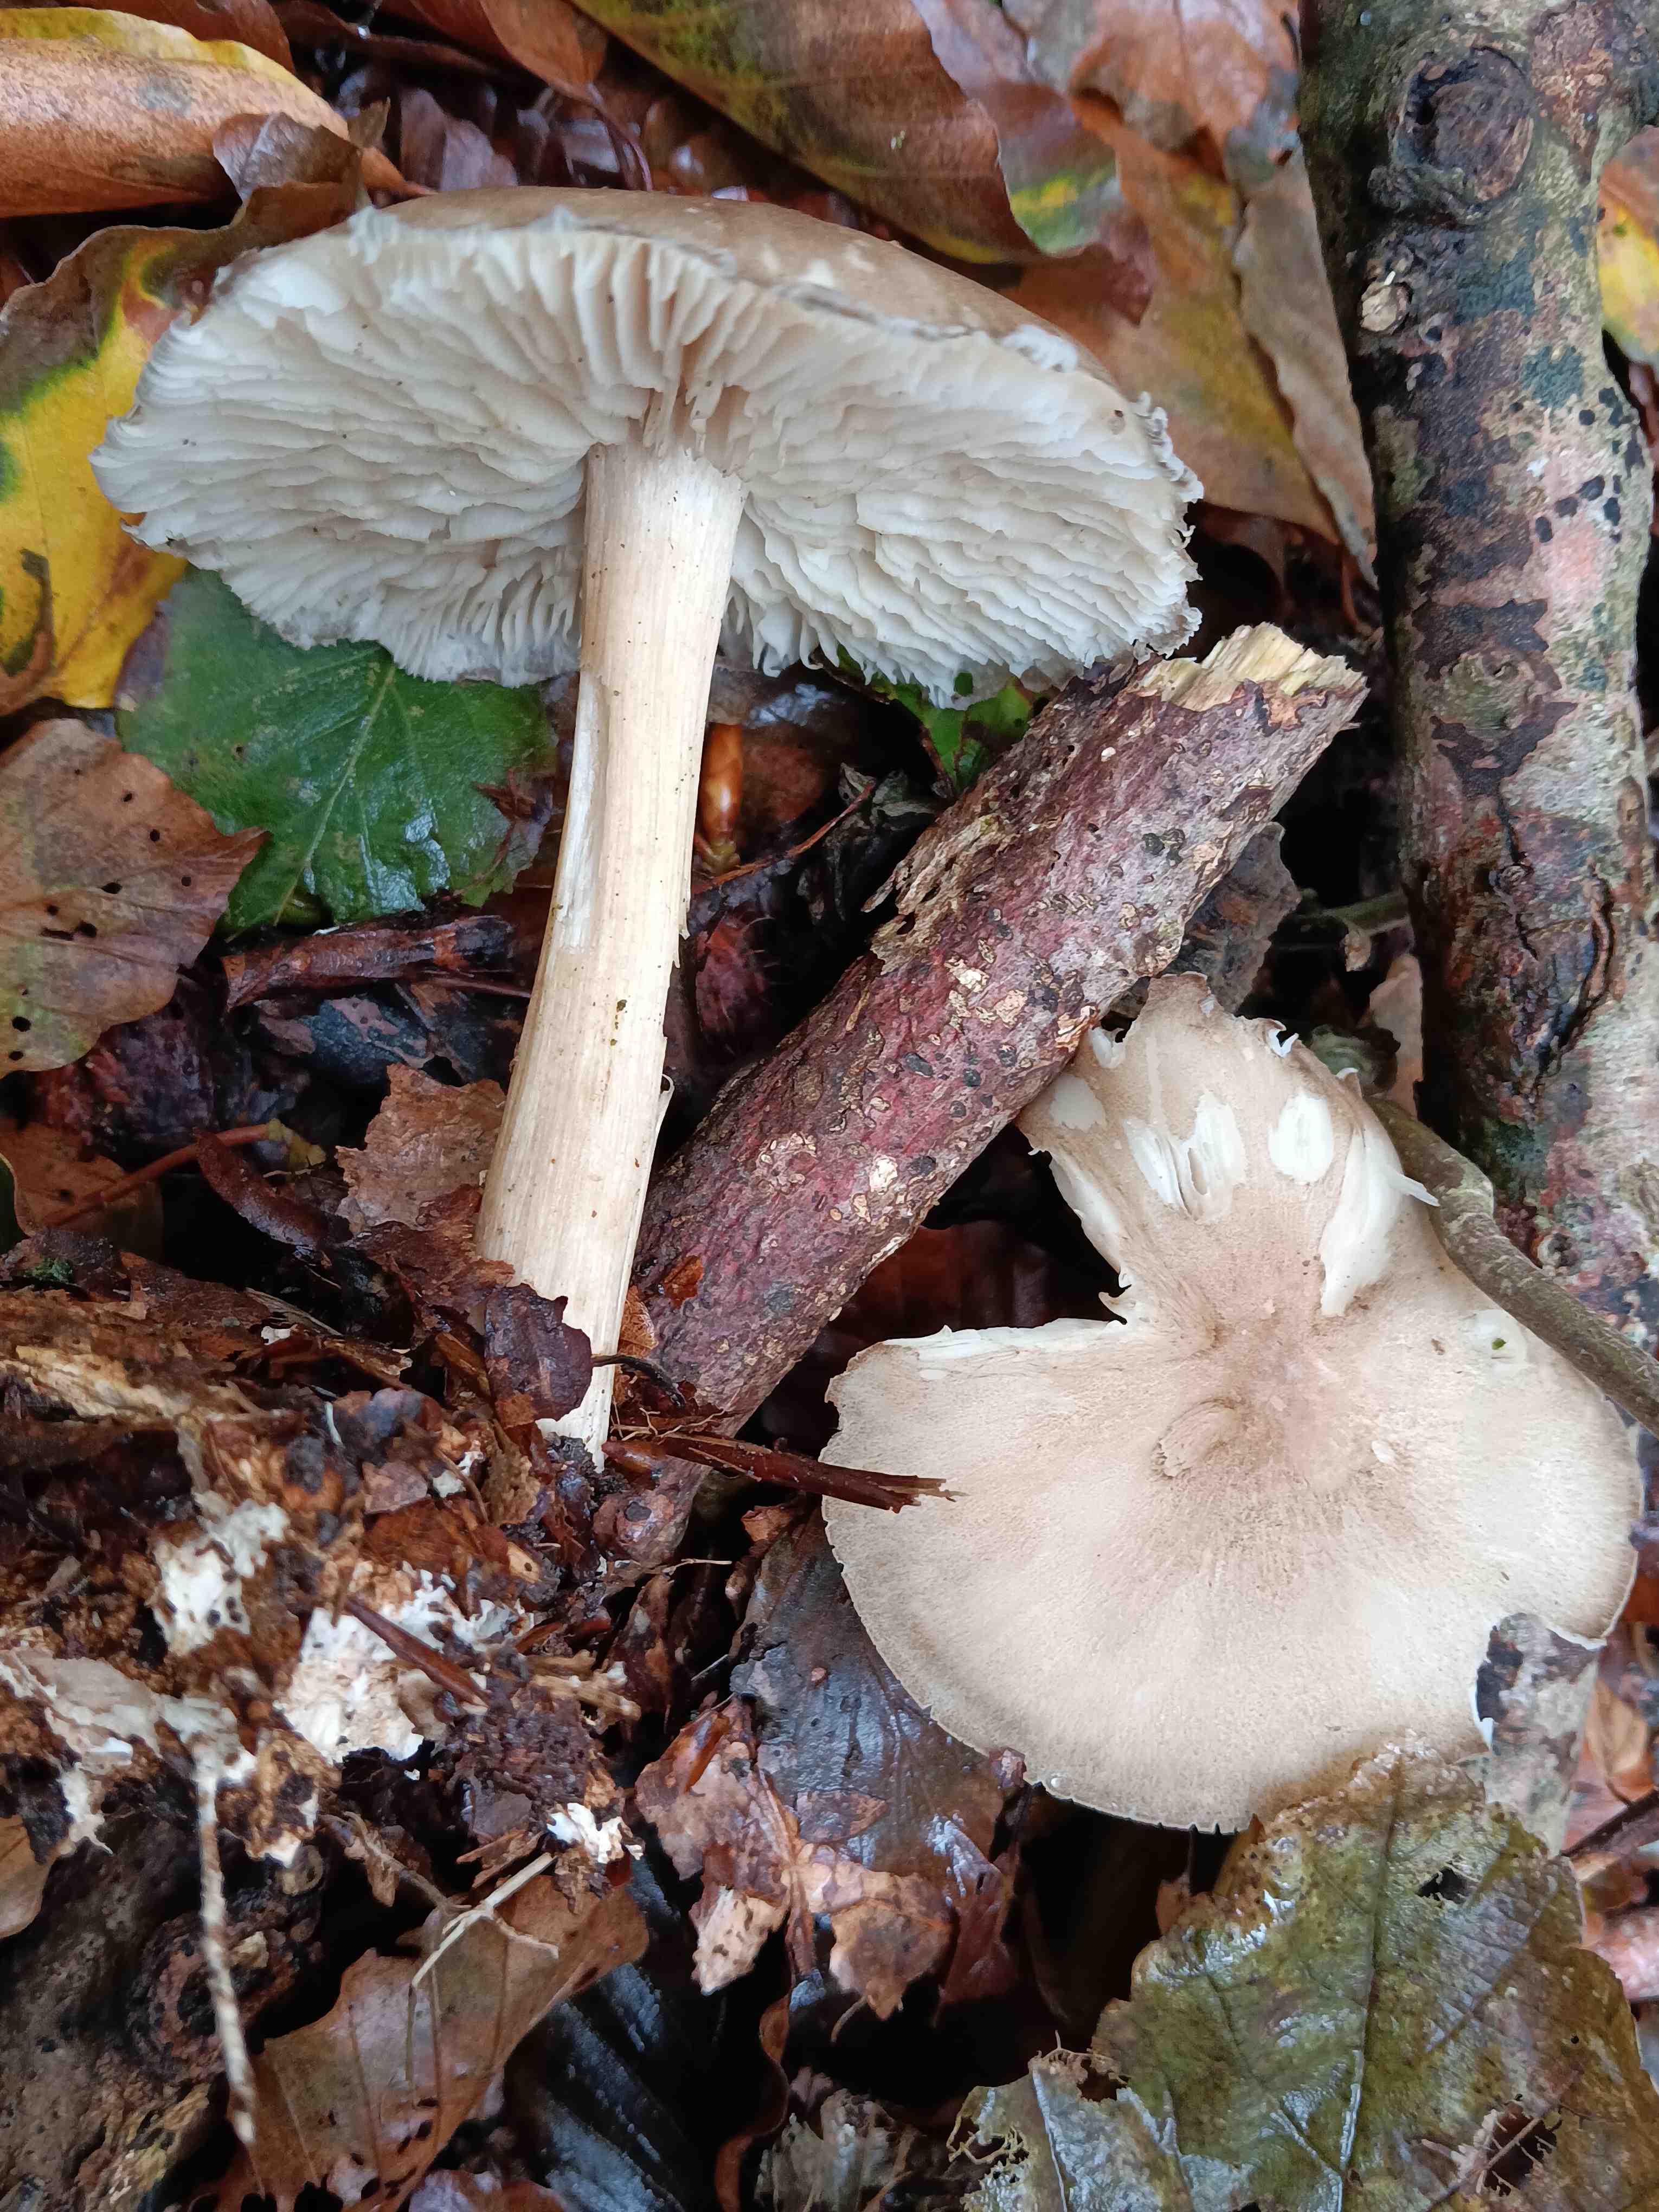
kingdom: Fungi
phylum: Basidiomycota
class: Agaricomycetes
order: Agaricales
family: Tricholomataceae
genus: Megacollybia
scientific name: Megacollybia platyphylla
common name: bredbladet væbnerhat
